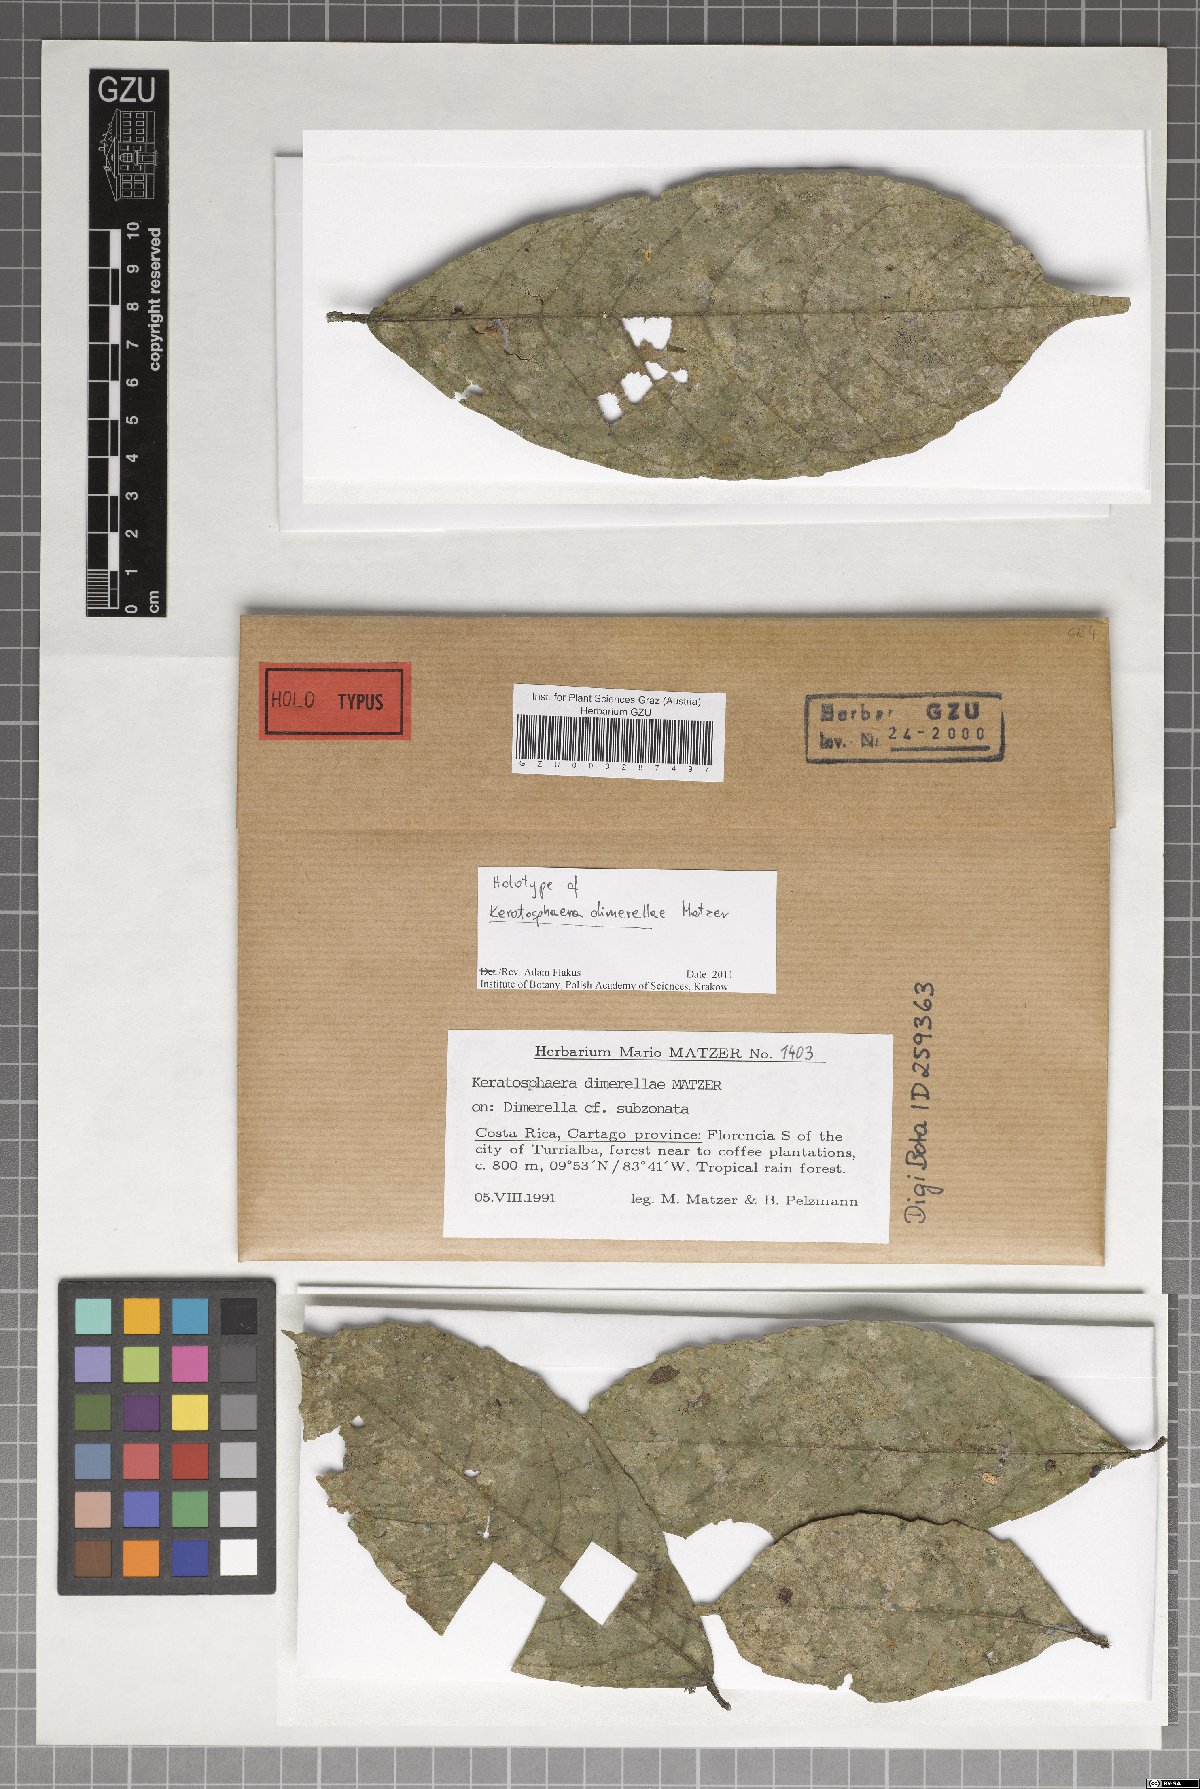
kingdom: Fungi
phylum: Ascomycota
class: Dothideomycetes
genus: Keratosphaera
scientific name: Keratosphaera dimerellae
